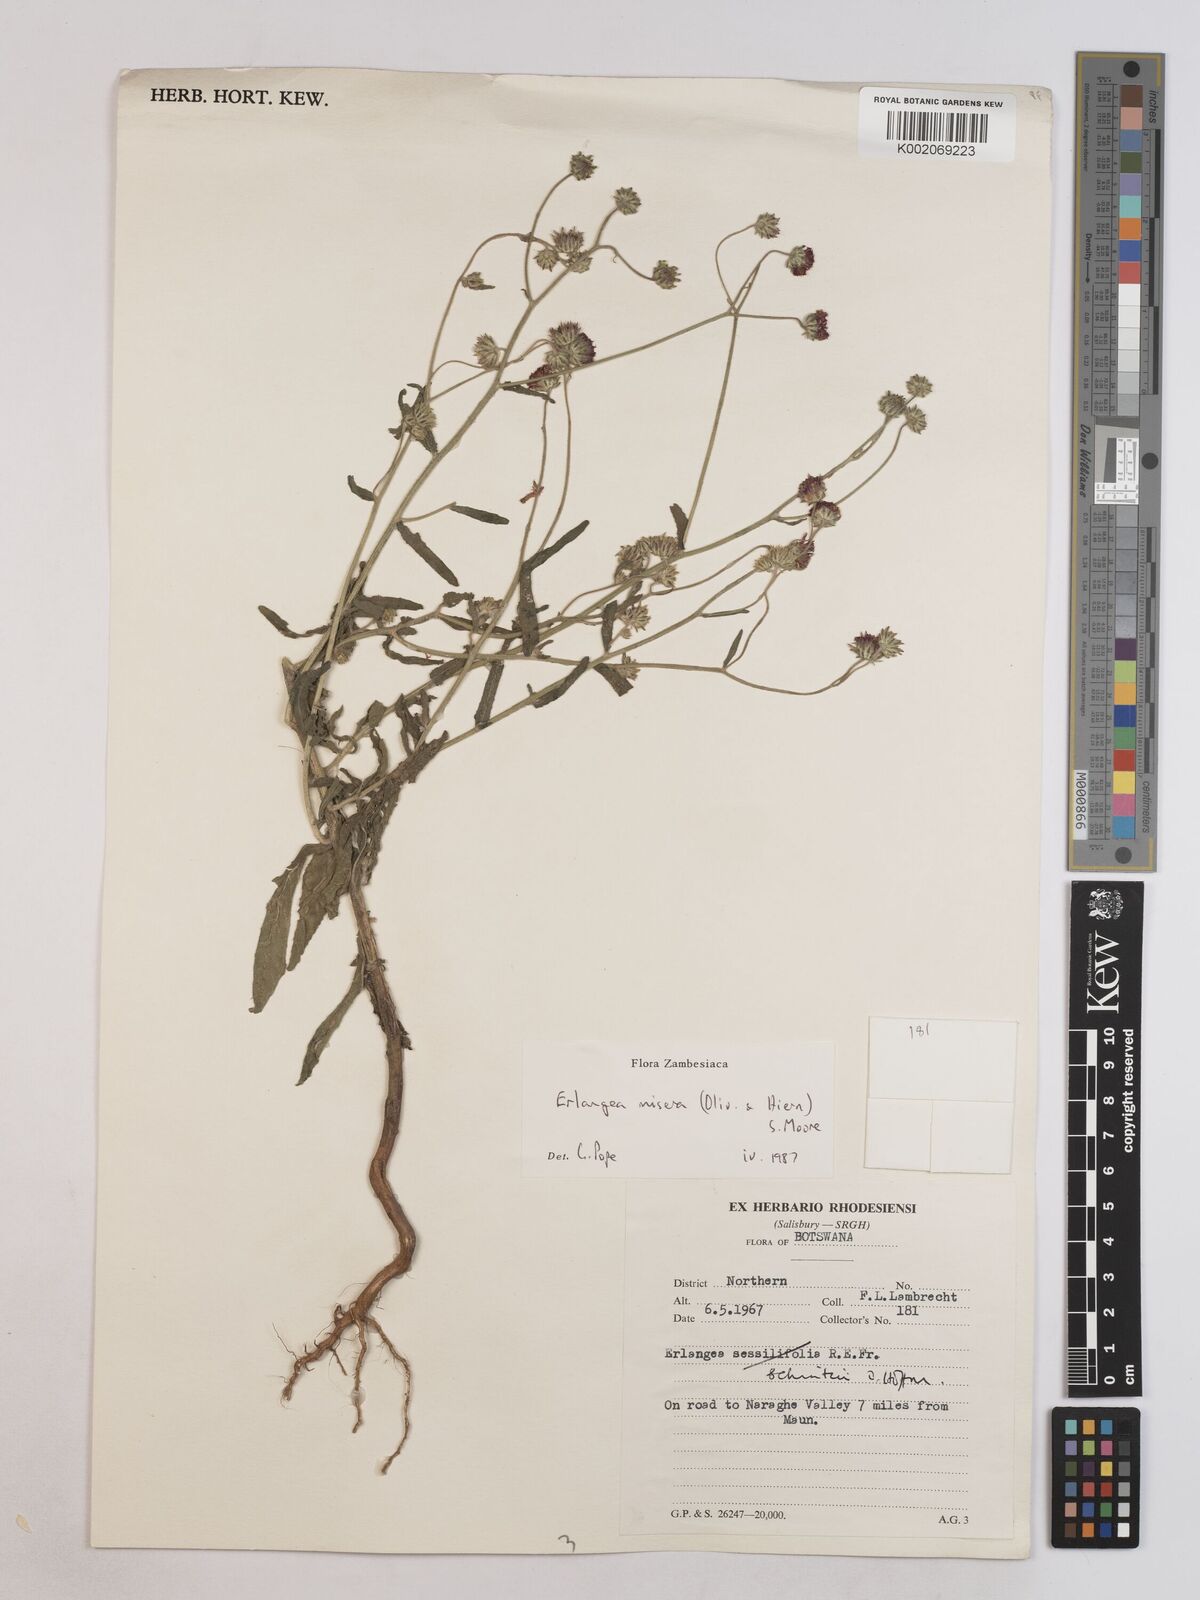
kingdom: Plantae
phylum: Tracheophyta
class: Magnoliopsida
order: Asterales
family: Asteraceae
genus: Erlangea
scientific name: Erlangea misera
